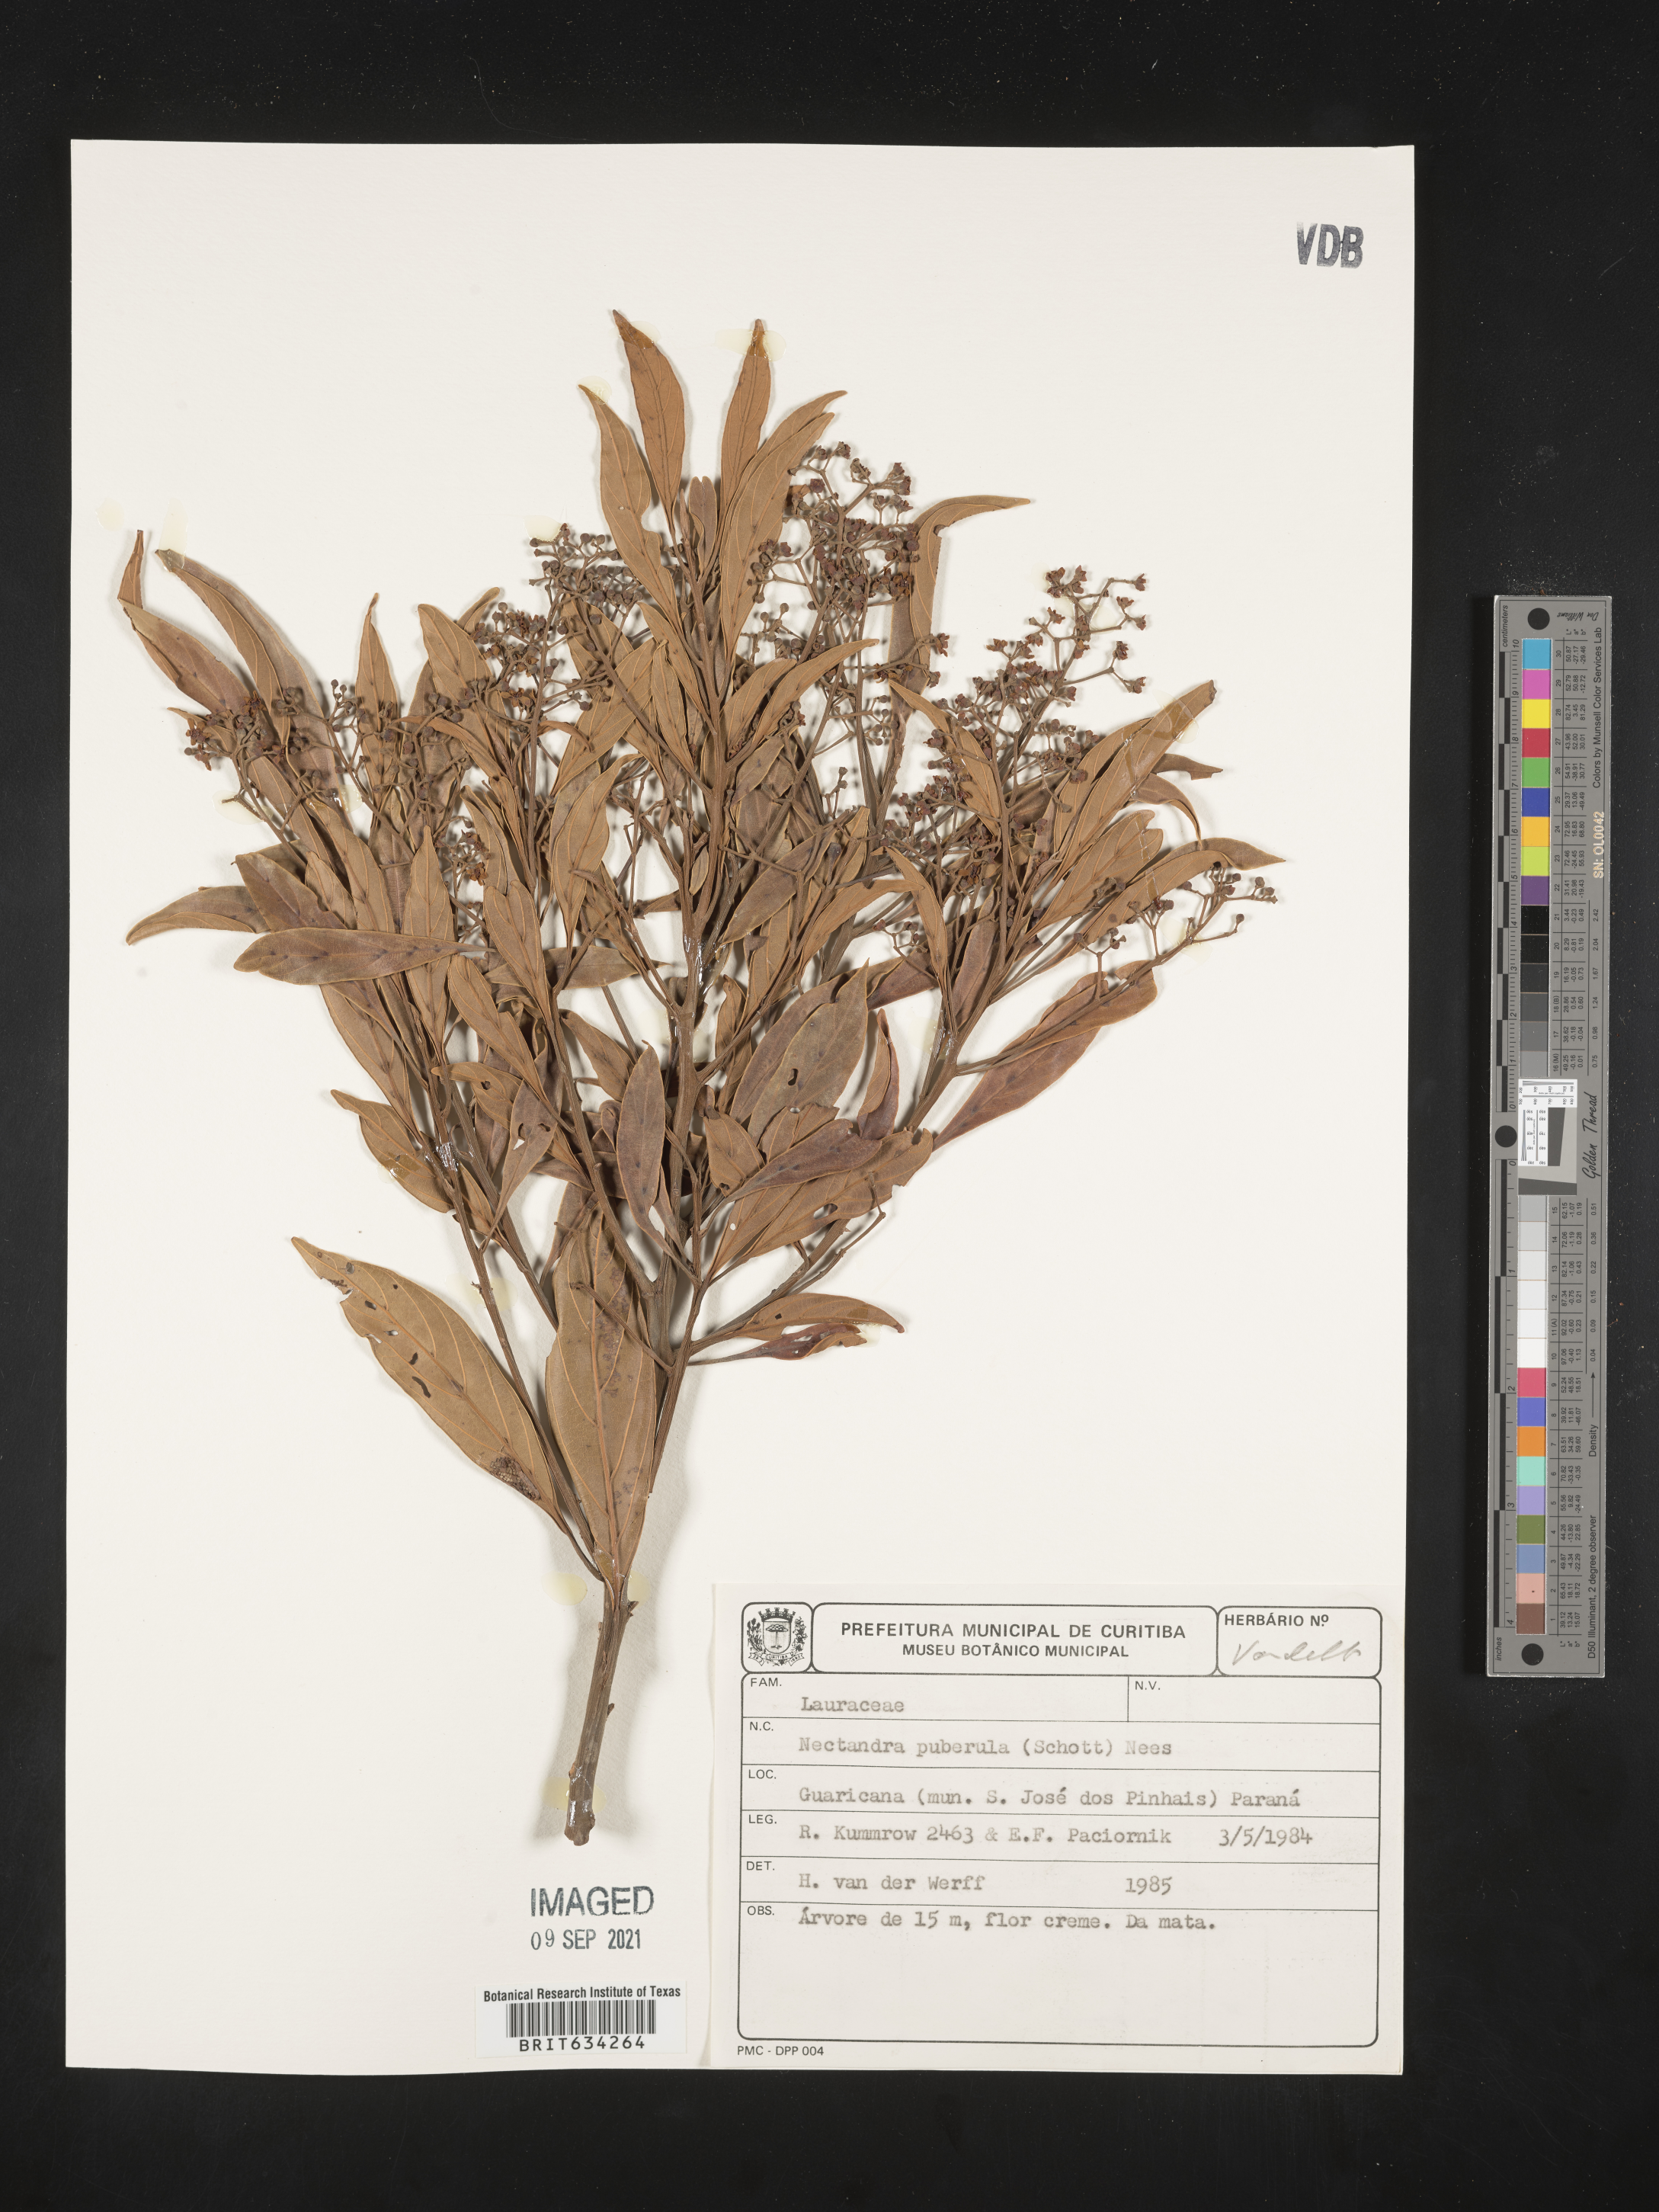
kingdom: Plantae
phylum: Tracheophyta
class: Magnoliopsida
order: Laurales
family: Lauraceae
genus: Nectandra
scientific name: Nectandra
